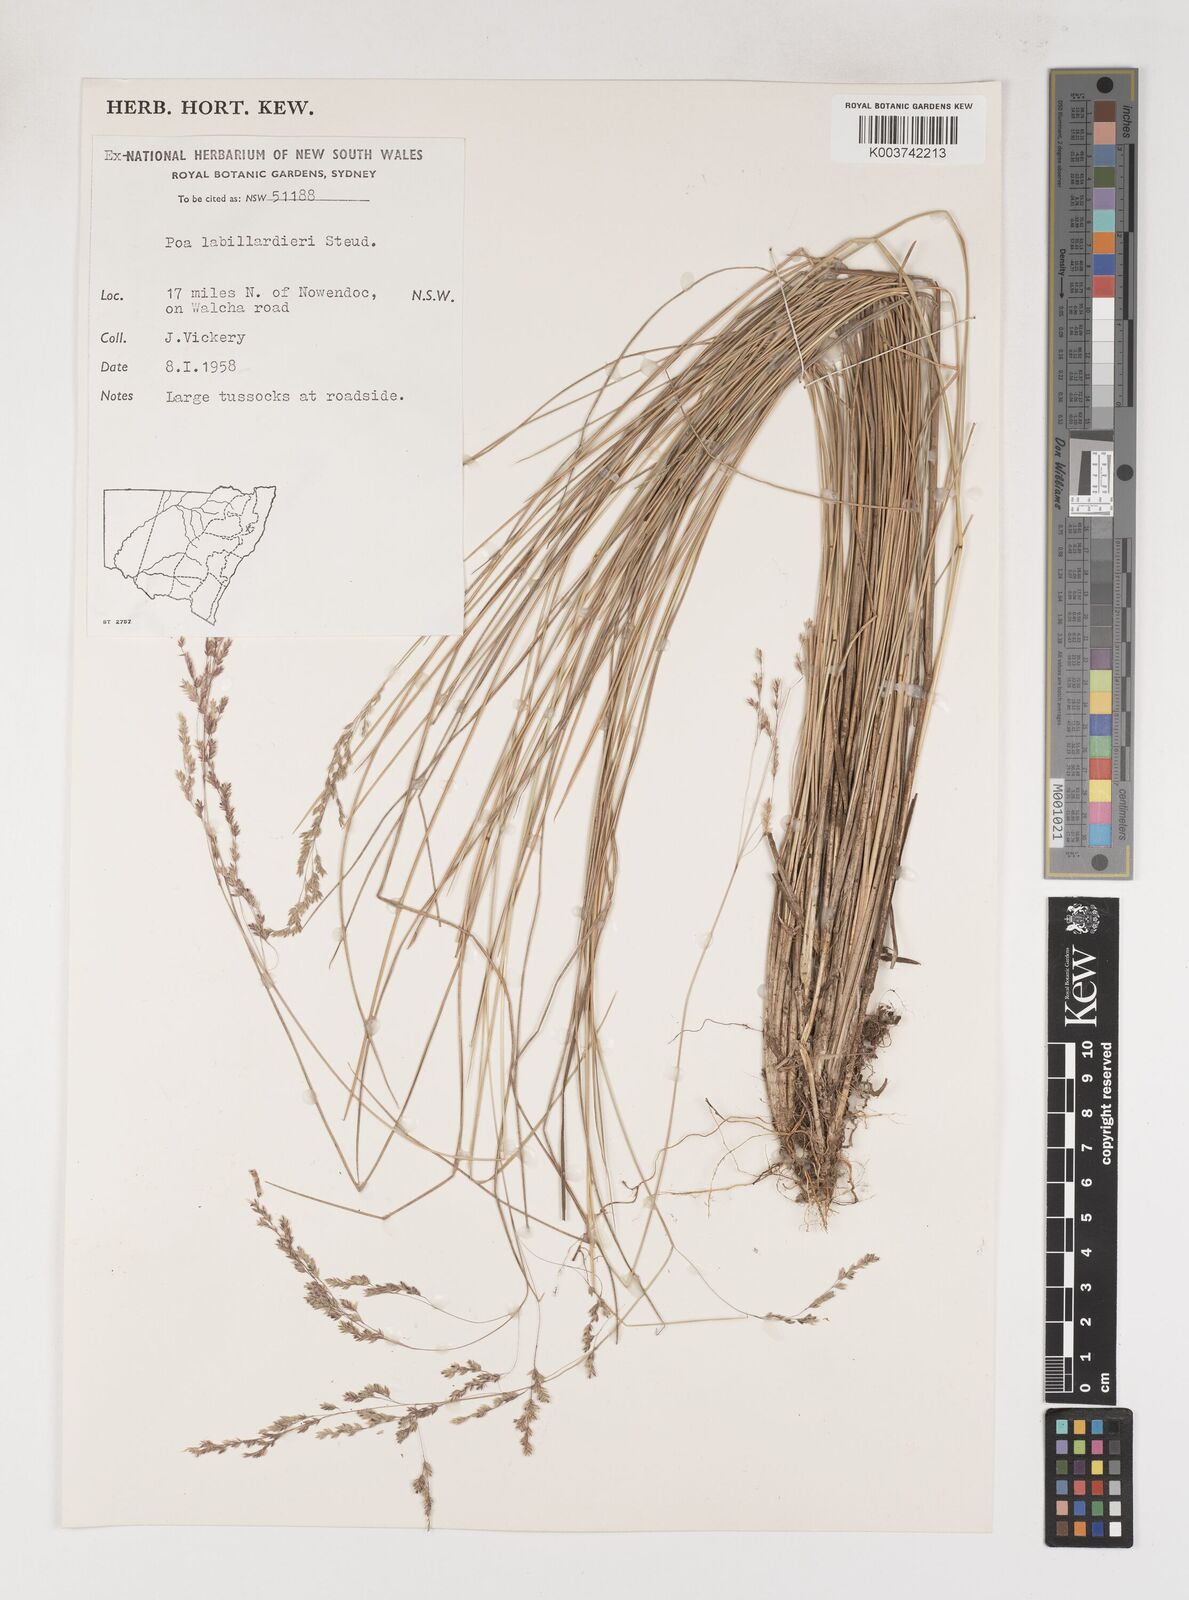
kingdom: Plantae
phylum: Tracheophyta
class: Liliopsida
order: Poales
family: Poaceae
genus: Poa
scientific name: Poa labillardierei
